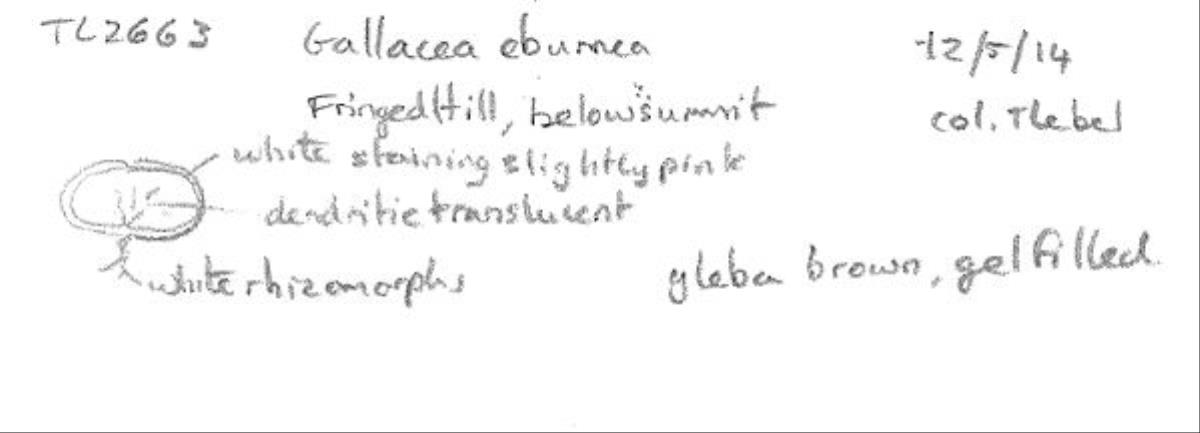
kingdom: Fungi
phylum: Basidiomycota
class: Agaricomycetes
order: Hysterangiales
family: Gallaceaceae
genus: Gallacea
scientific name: Gallacea eburnea
